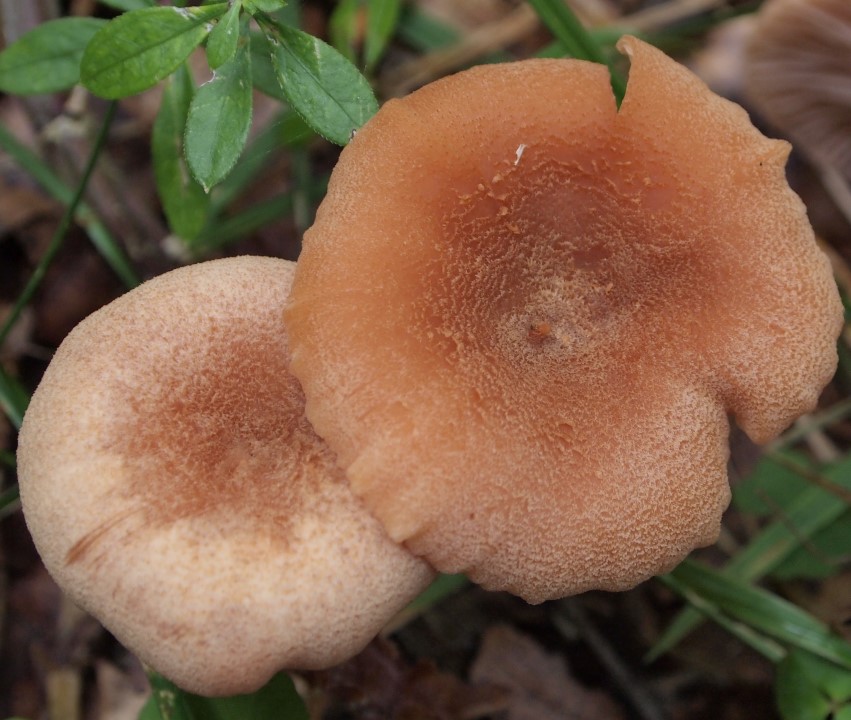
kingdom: Fungi
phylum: Basidiomycota
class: Agaricomycetes
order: Agaricales
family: Hydnangiaceae
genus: Laccaria
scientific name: Laccaria proxima
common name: stor ametysthat
